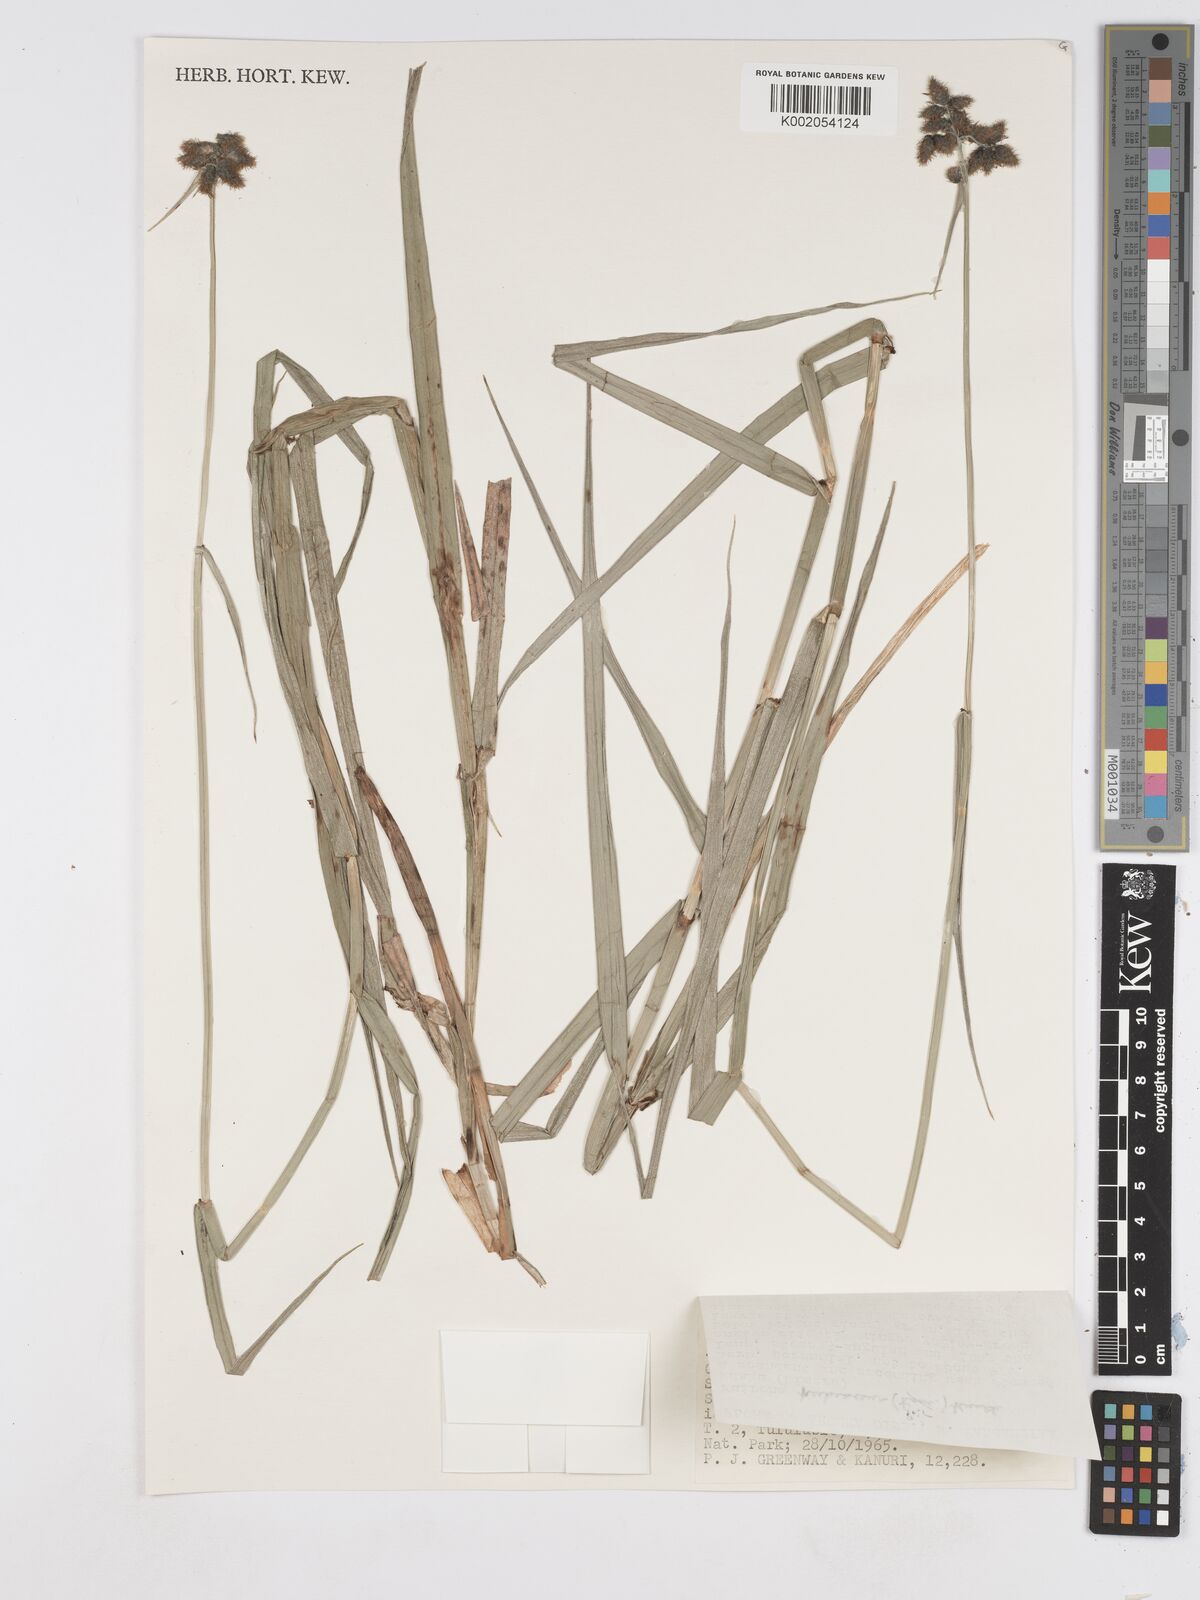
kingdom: Plantae
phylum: Tracheophyta
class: Liliopsida
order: Poales
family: Cyperaceae
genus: Fuirena
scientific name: Fuirena pubescens
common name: Hairy sedge
